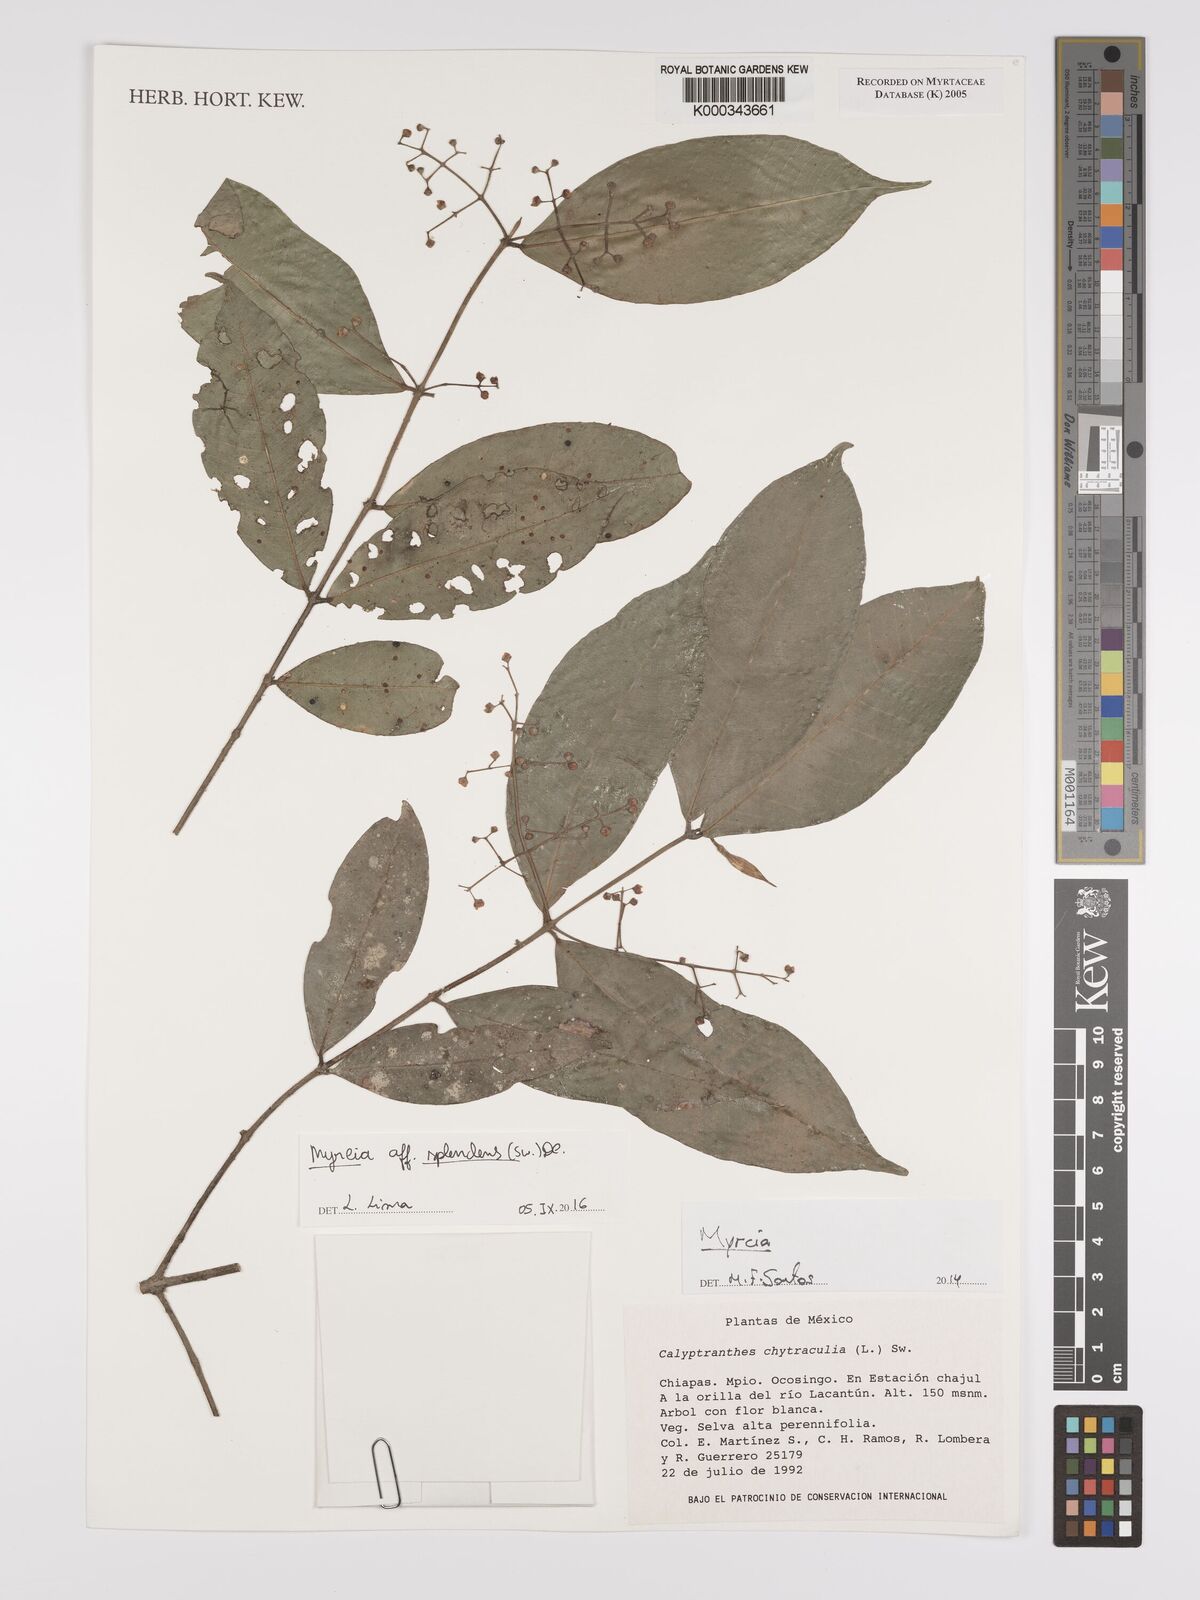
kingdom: Plantae
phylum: Tracheophyta
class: Magnoliopsida
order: Myrtales
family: Myrtaceae
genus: Myrcia
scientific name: Myrcia chytraculia
